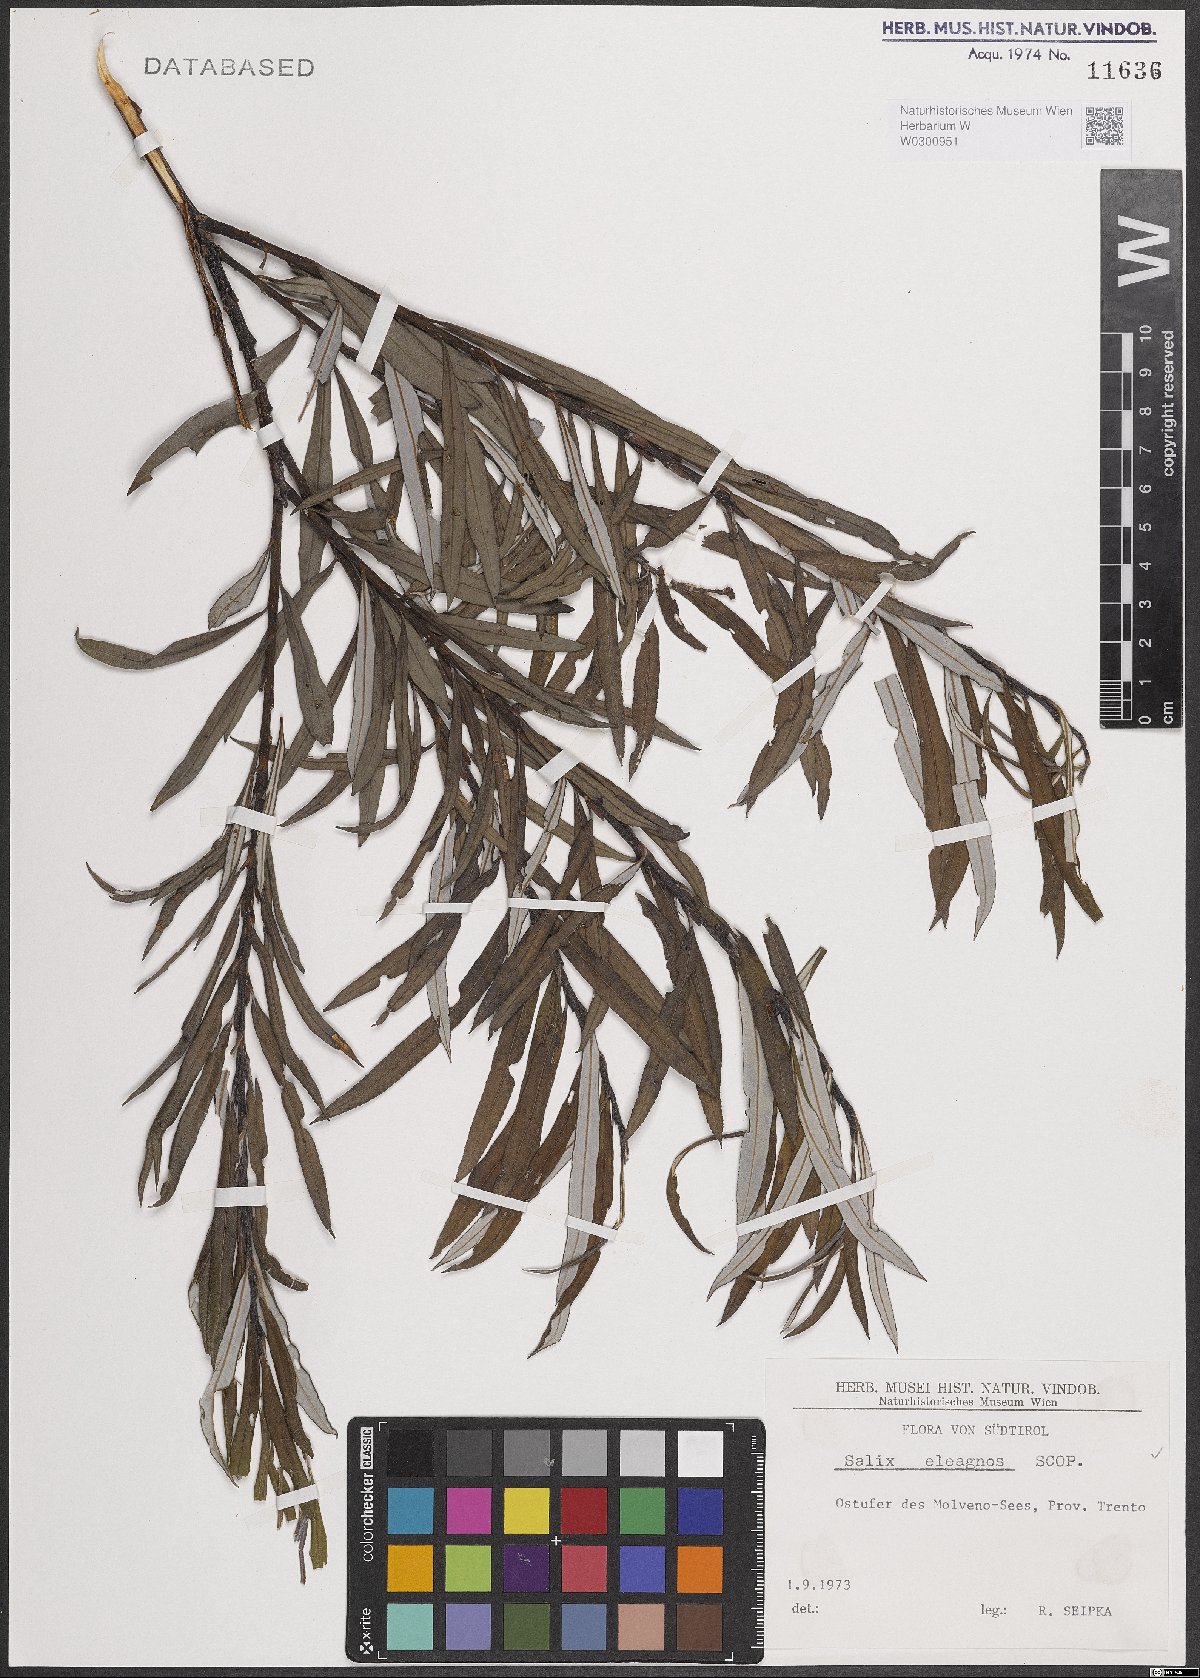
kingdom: Plantae
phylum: Tracheophyta
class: Magnoliopsida
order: Malpighiales
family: Salicaceae
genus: Salix
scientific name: Salix eleagnos
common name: Elaeagnus willow
